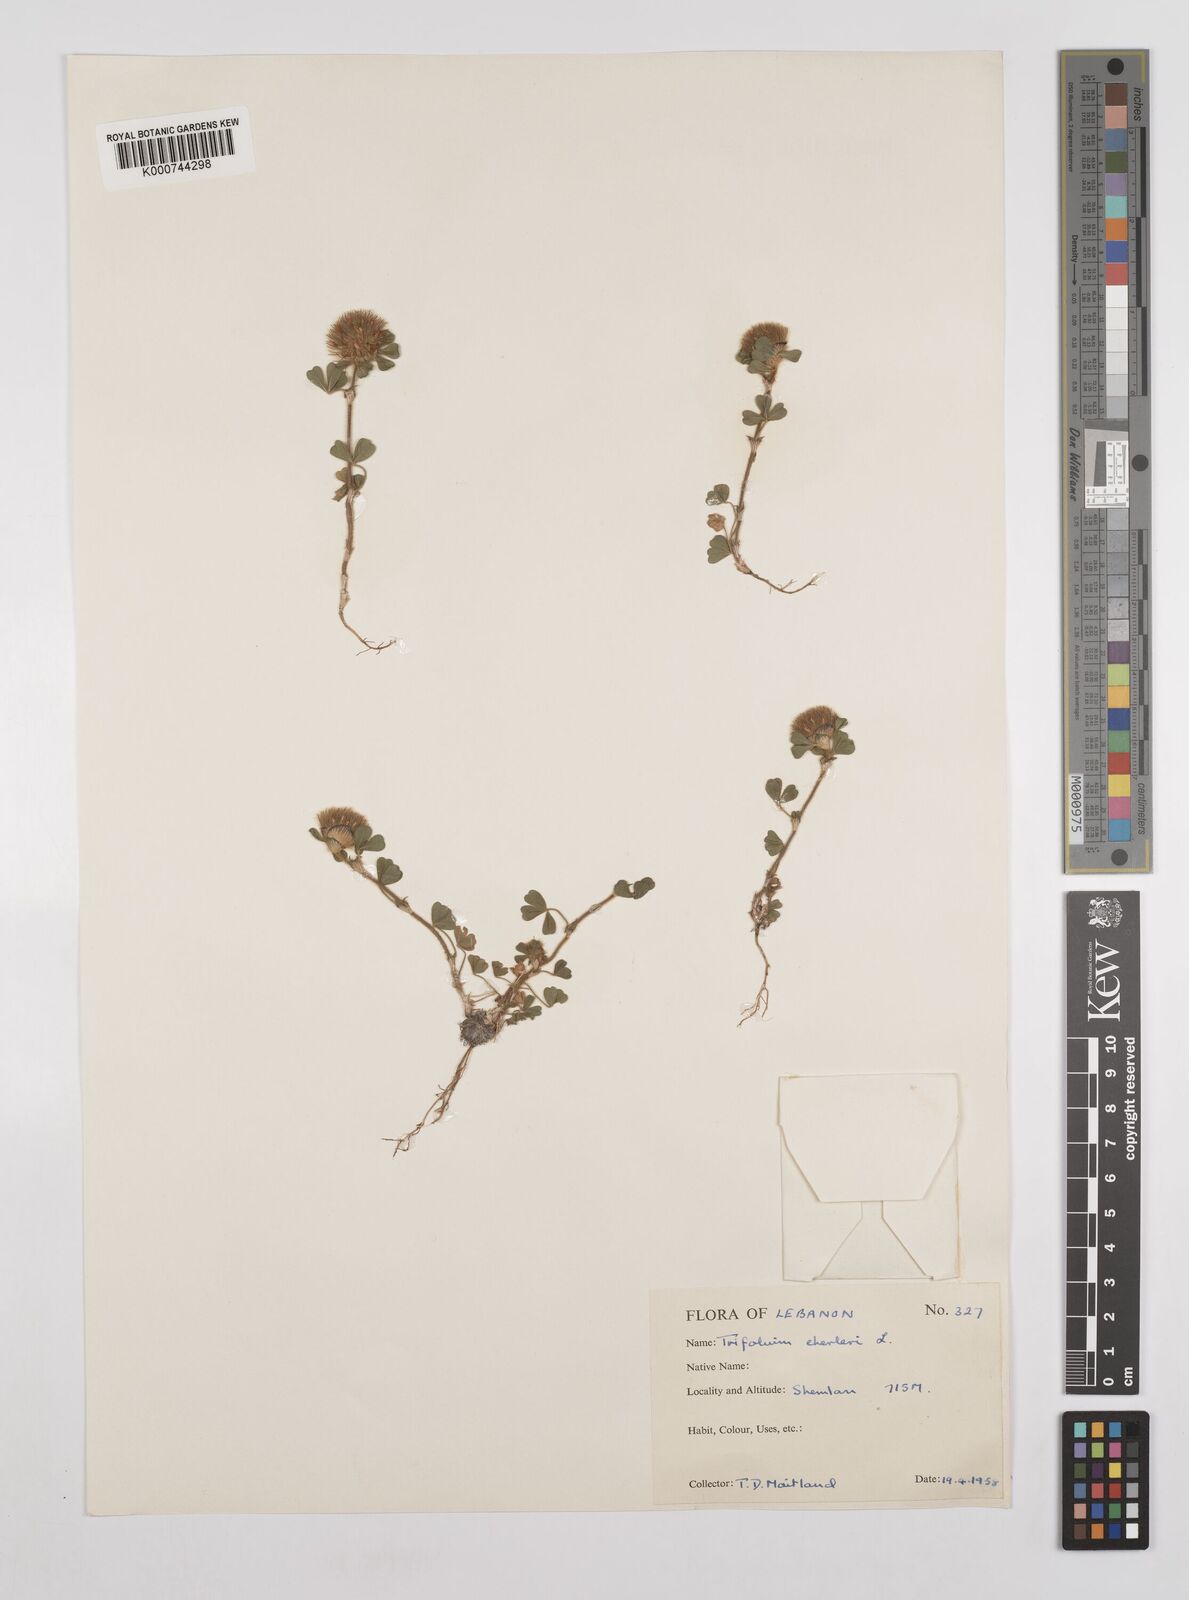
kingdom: Plantae
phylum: Tracheophyta
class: Magnoliopsida
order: Fabales
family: Fabaceae
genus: Trifolium
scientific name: Trifolium cherleri
